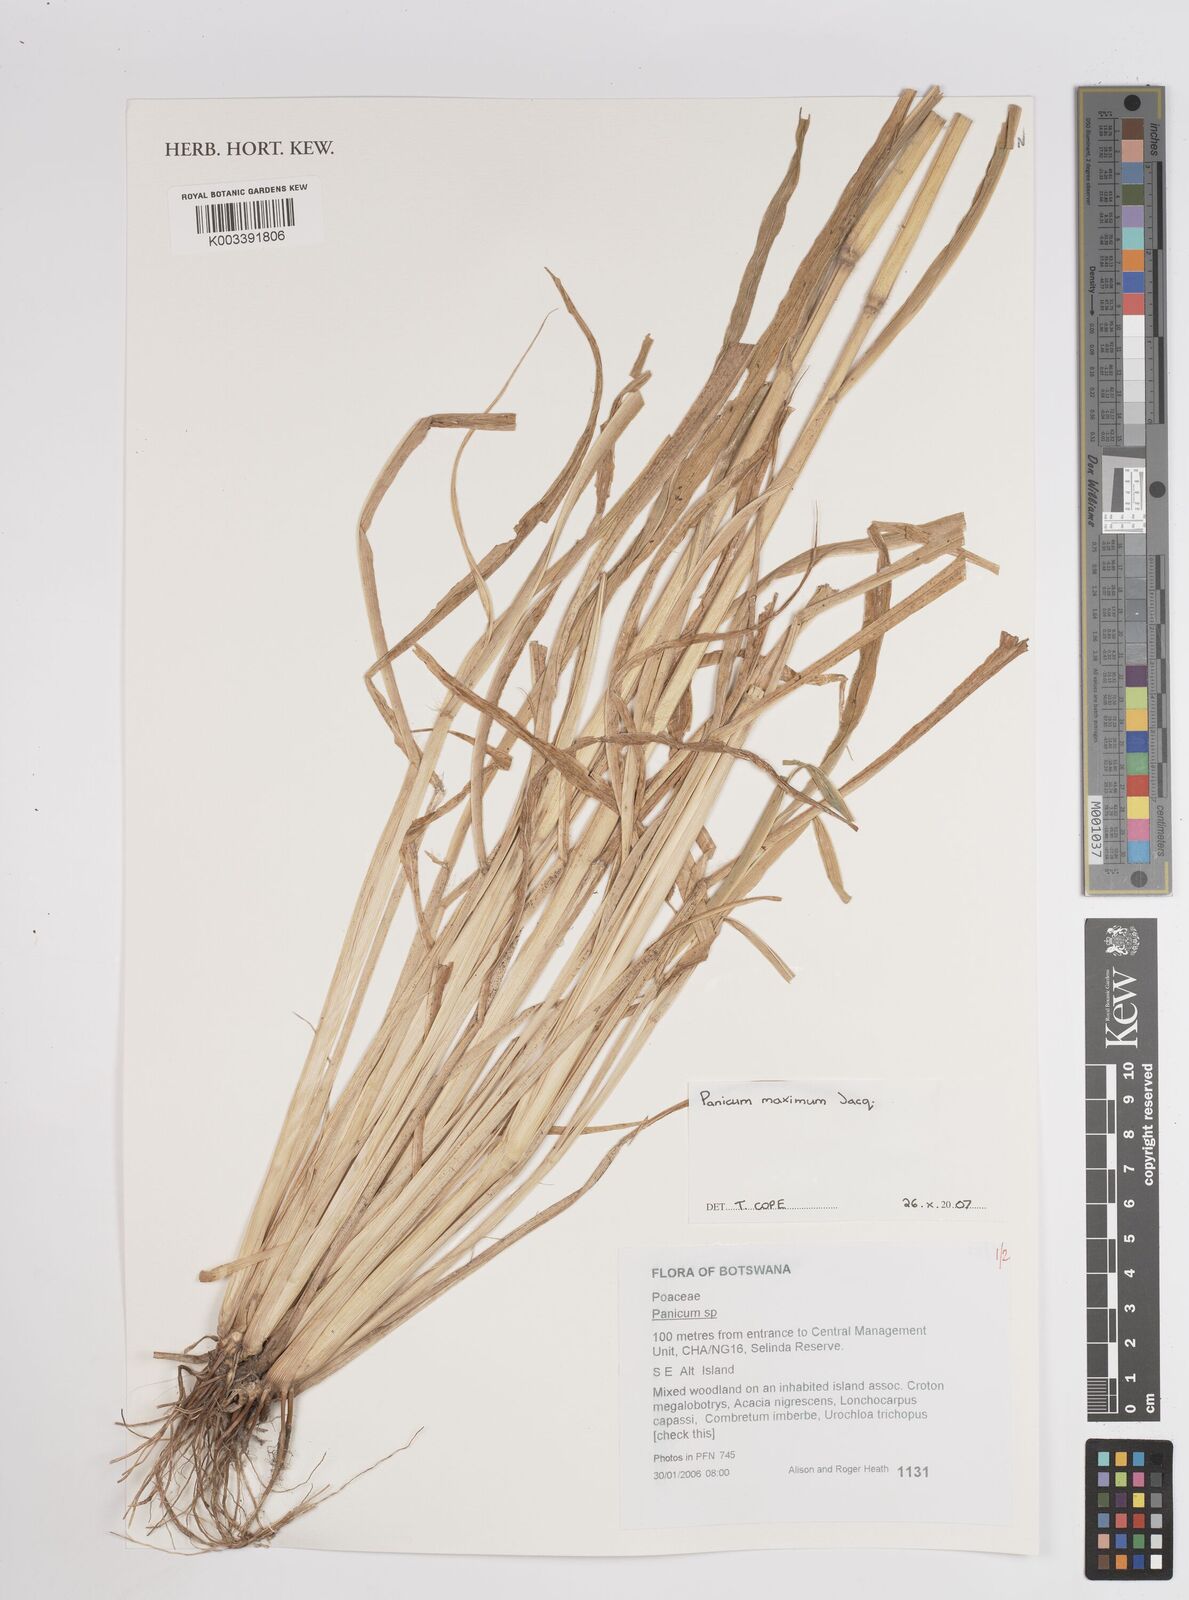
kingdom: Plantae
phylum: Tracheophyta
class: Liliopsida
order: Poales
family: Poaceae
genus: Megathyrsus
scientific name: Megathyrsus maximus
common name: Guineagrass
